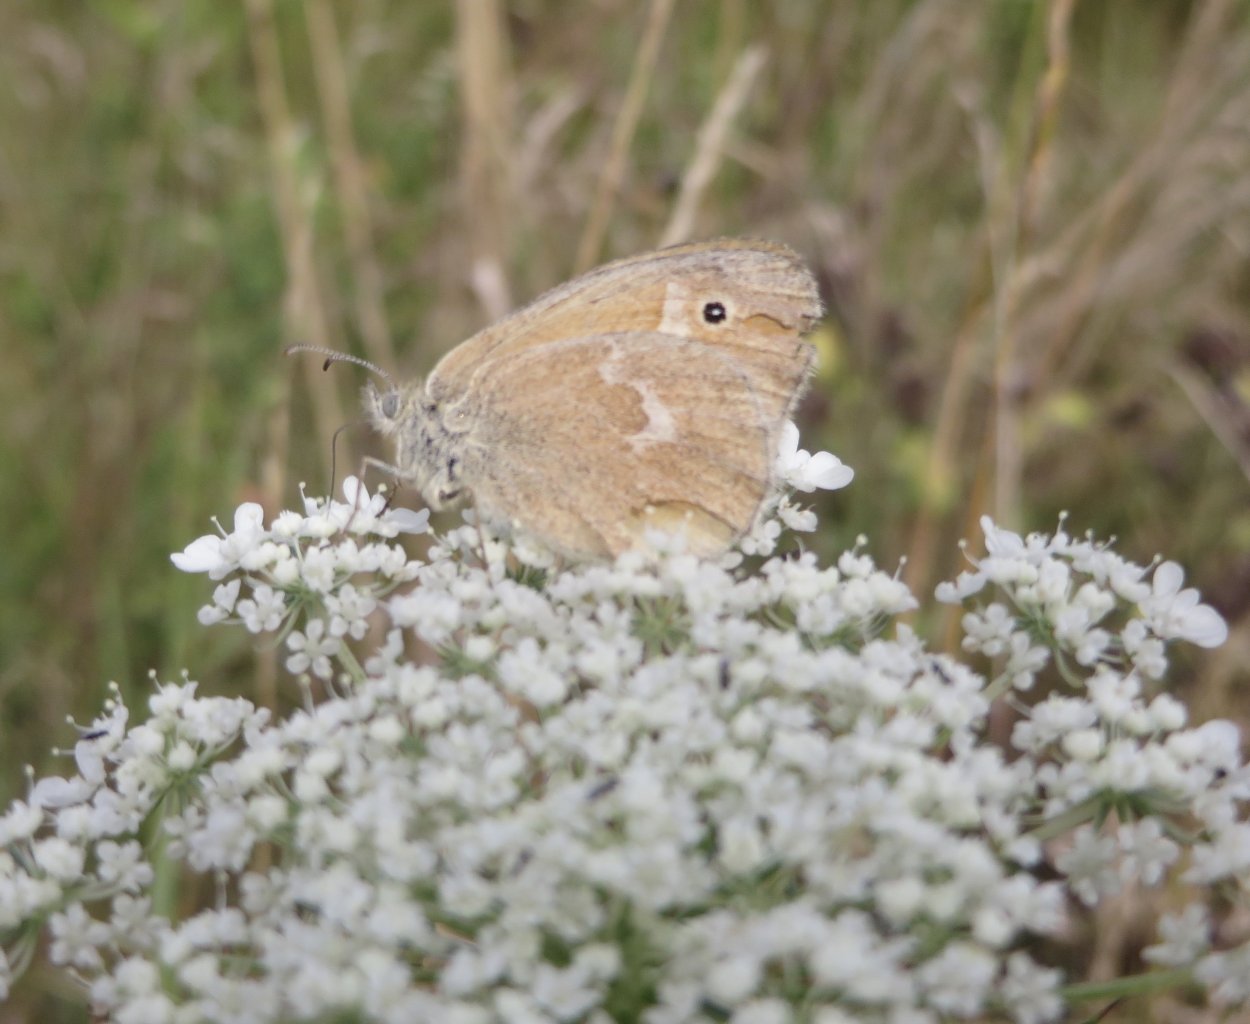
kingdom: Animalia
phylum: Arthropoda
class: Insecta
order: Lepidoptera
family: Nymphalidae
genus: Coenonympha
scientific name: Coenonympha tullia
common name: Large Heath
